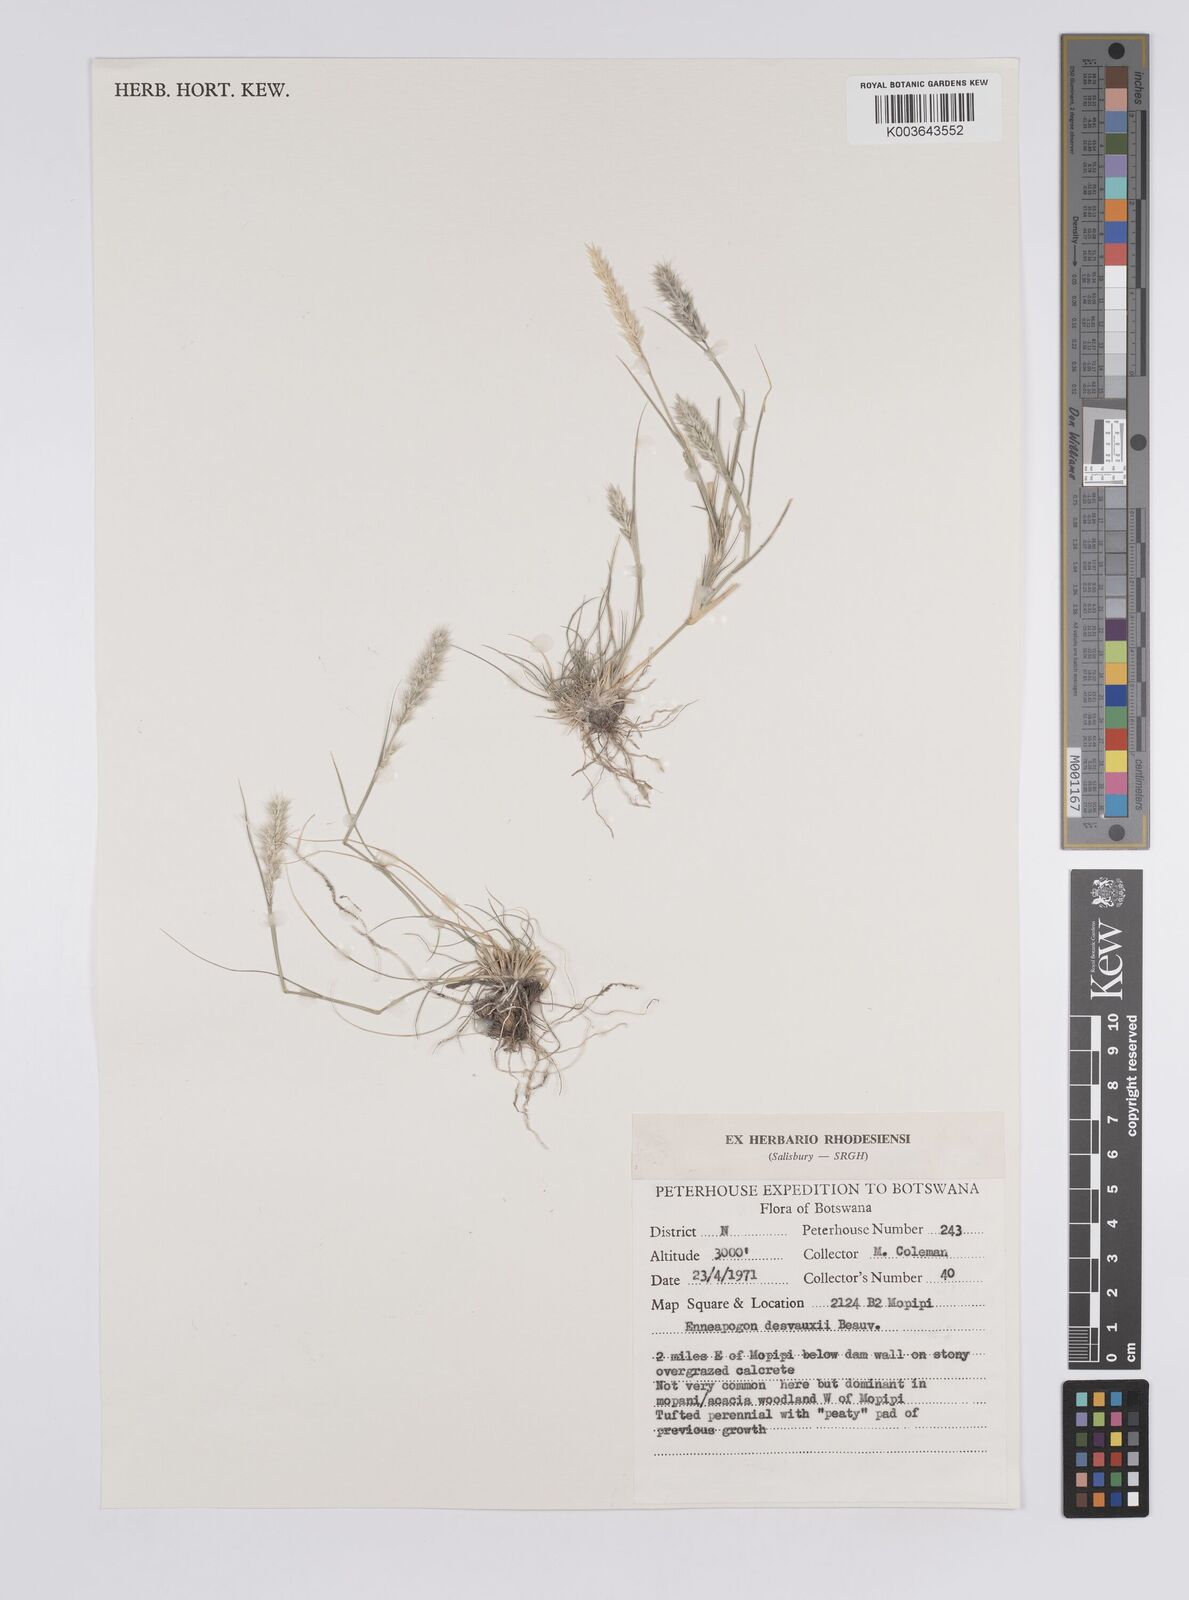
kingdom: Plantae
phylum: Tracheophyta
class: Liliopsida
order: Poales
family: Poaceae
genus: Enneapogon
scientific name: Enneapogon desvauxii
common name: Feather pappus grass
